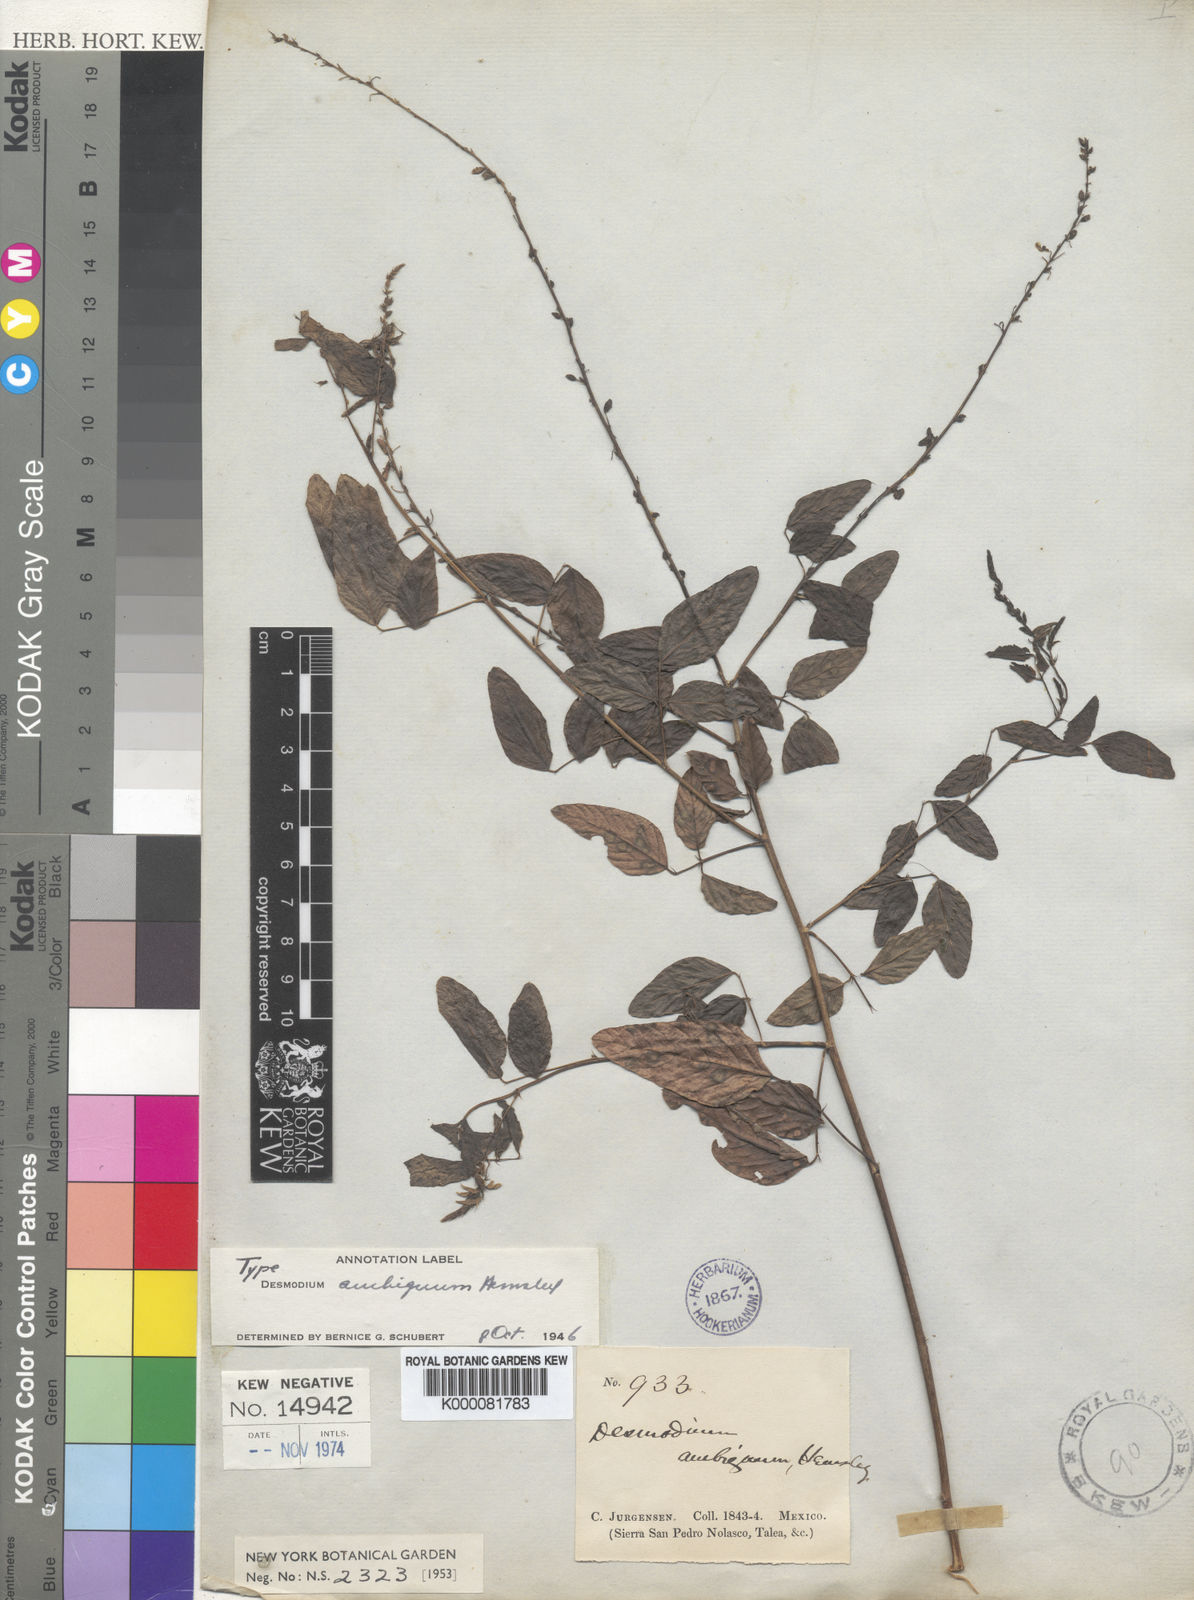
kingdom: Plantae
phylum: Tracheophyta
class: Magnoliopsida
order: Fabales
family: Fabaceae
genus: Desmodium
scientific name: Desmodium ambiguum
